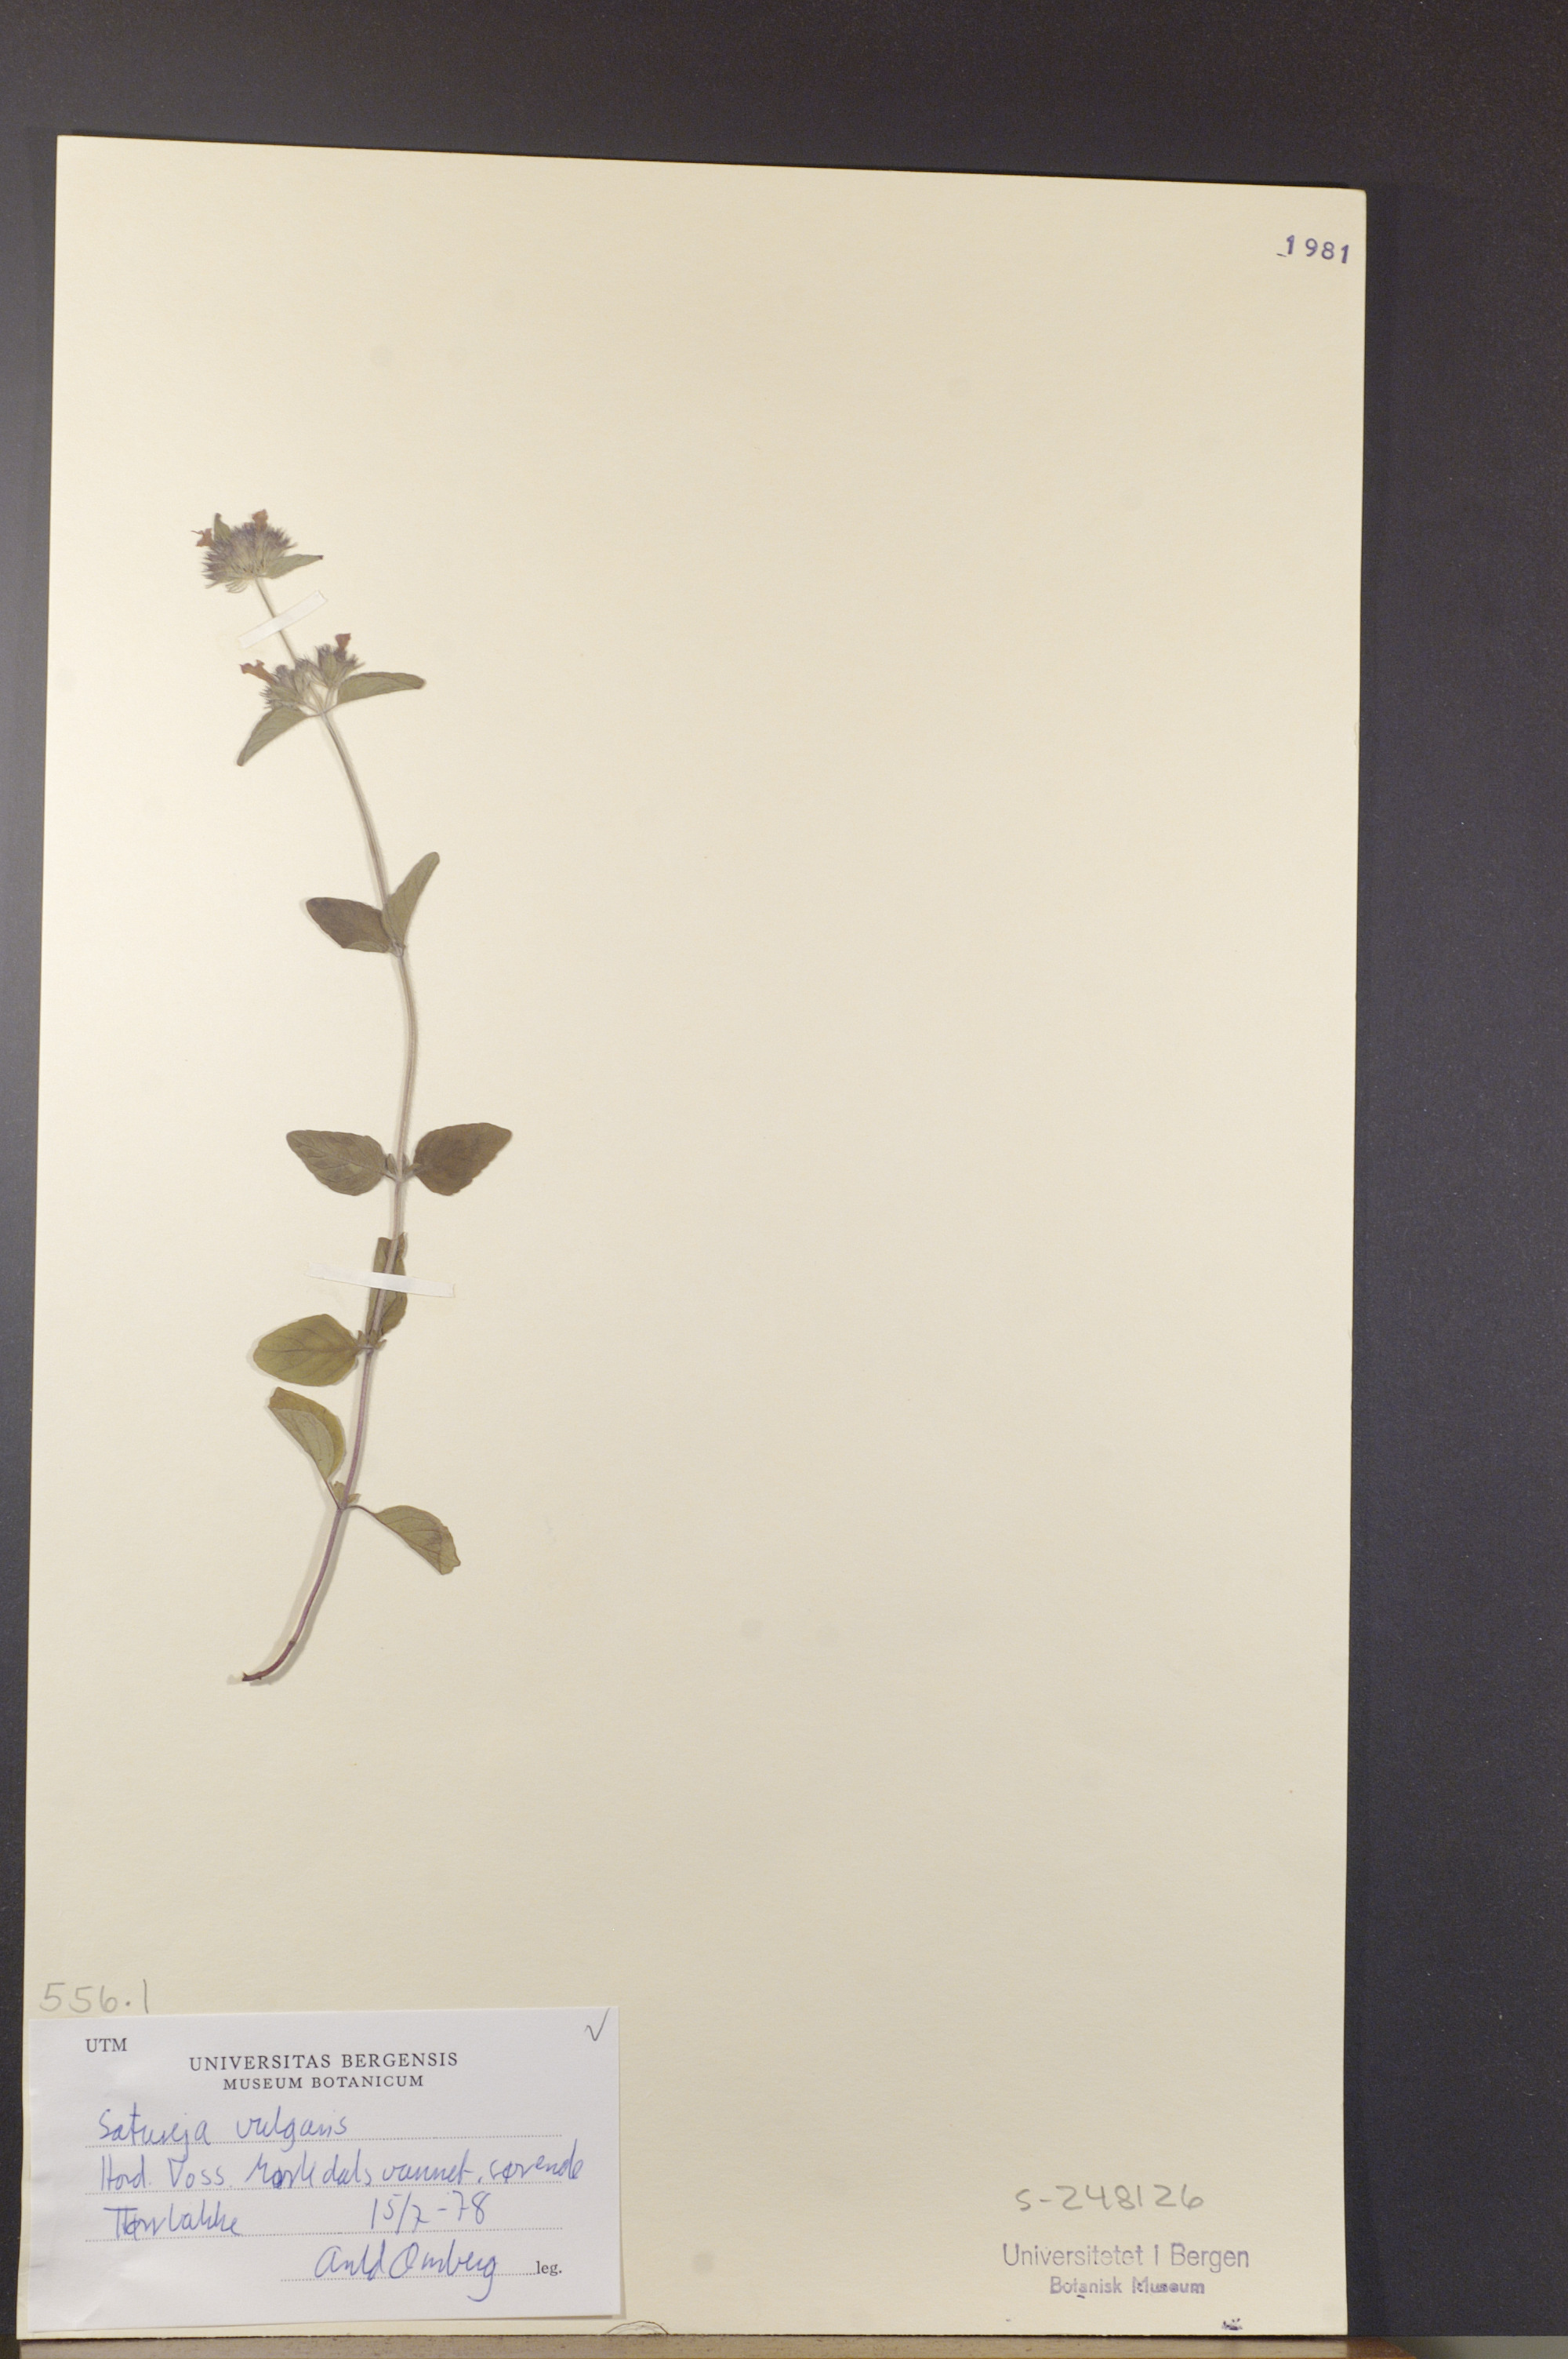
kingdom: Plantae
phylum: Tracheophyta
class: Magnoliopsida
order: Lamiales
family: Lamiaceae
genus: Clinopodium
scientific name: Clinopodium vulgare
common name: Wild basil
